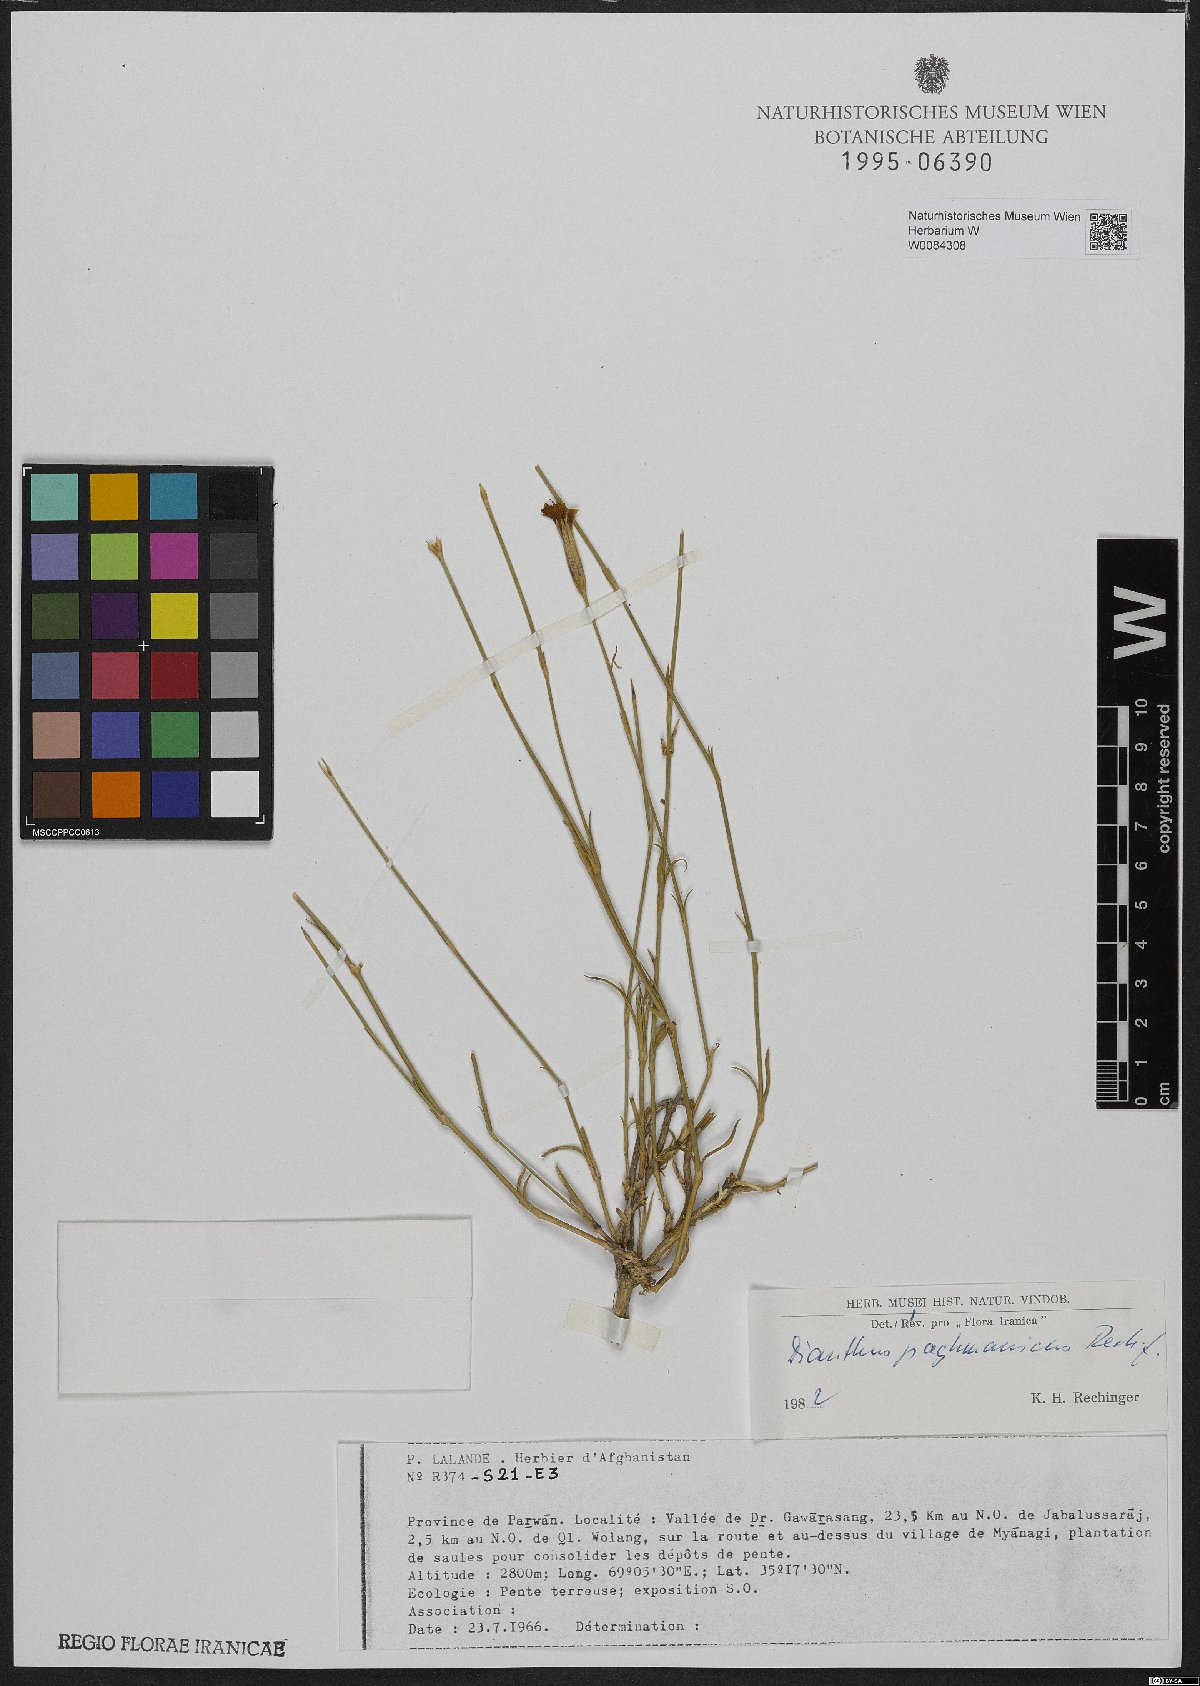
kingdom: Plantae
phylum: Tracheophyta
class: Magnoliopsida
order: Caryophyllales
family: Caryophyllaceae
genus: Dianthus
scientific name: Dianthus paghmanicus
